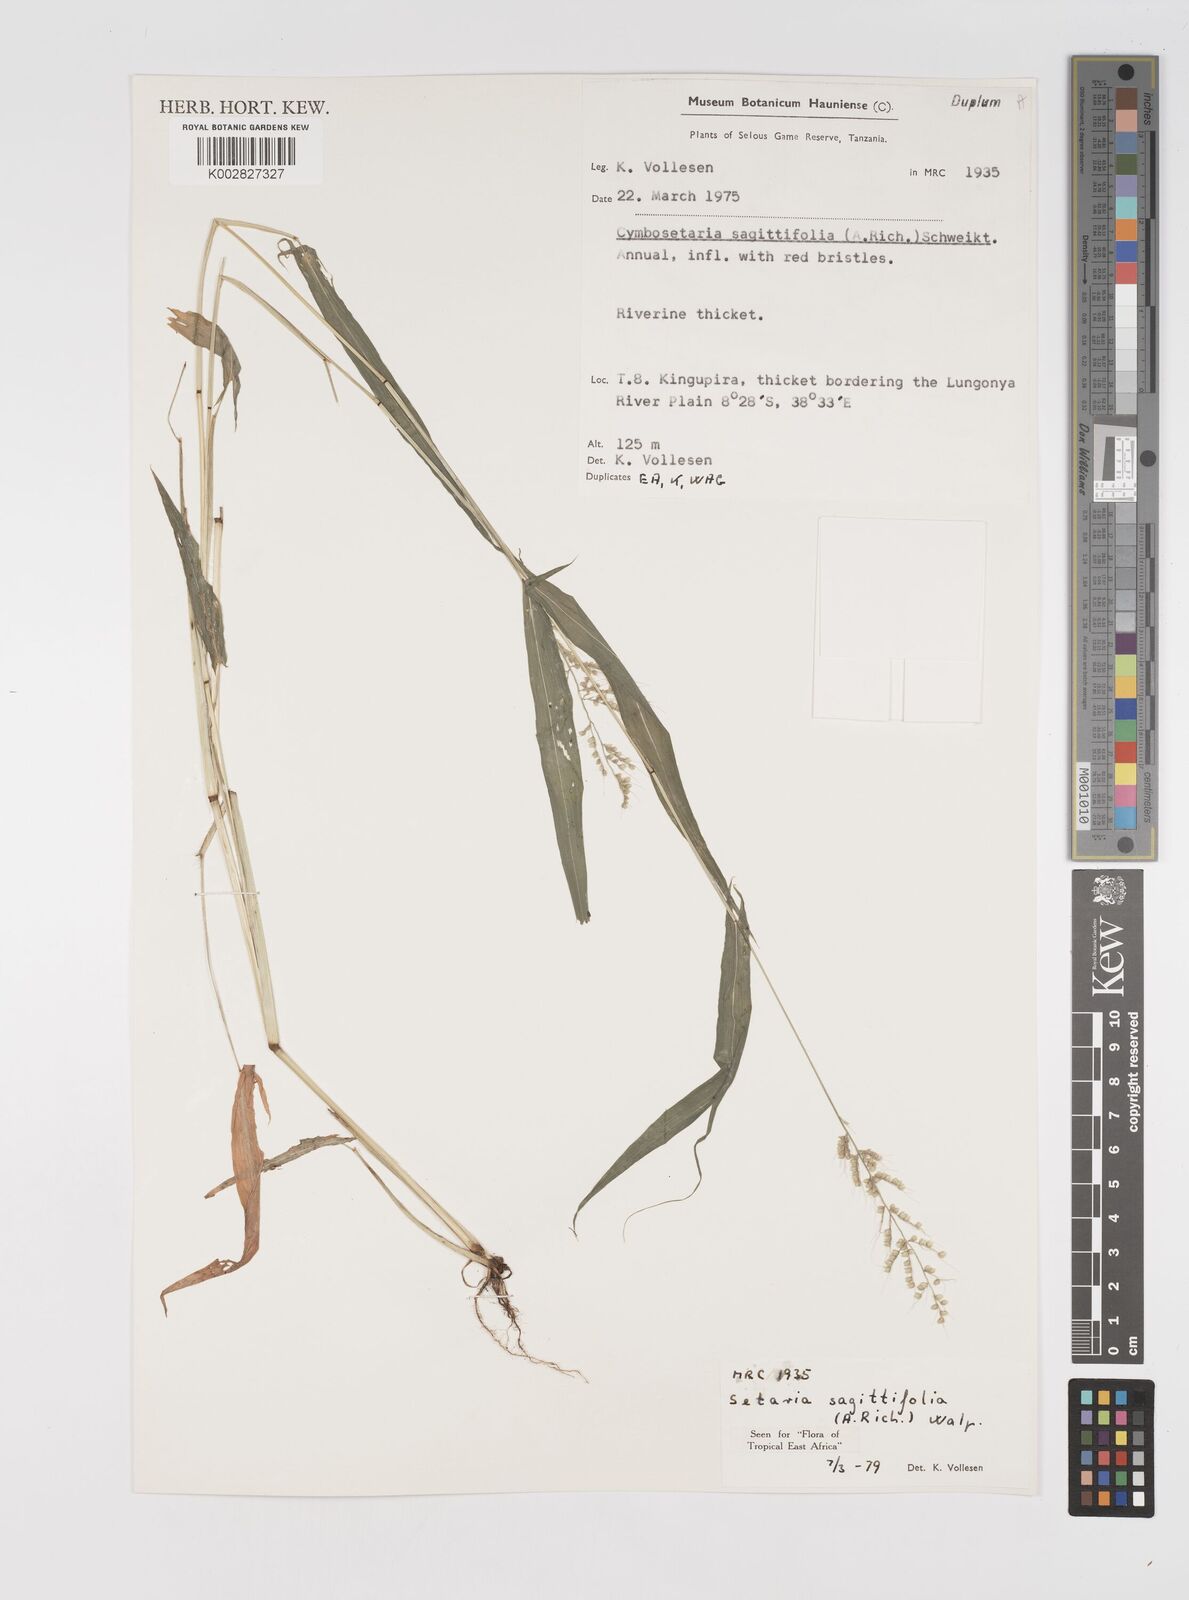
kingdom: Plantae
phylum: Tracheophyta
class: Liliopsida
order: Poales
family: Poaceae
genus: Setaria
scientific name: Setaria sagittifolia
